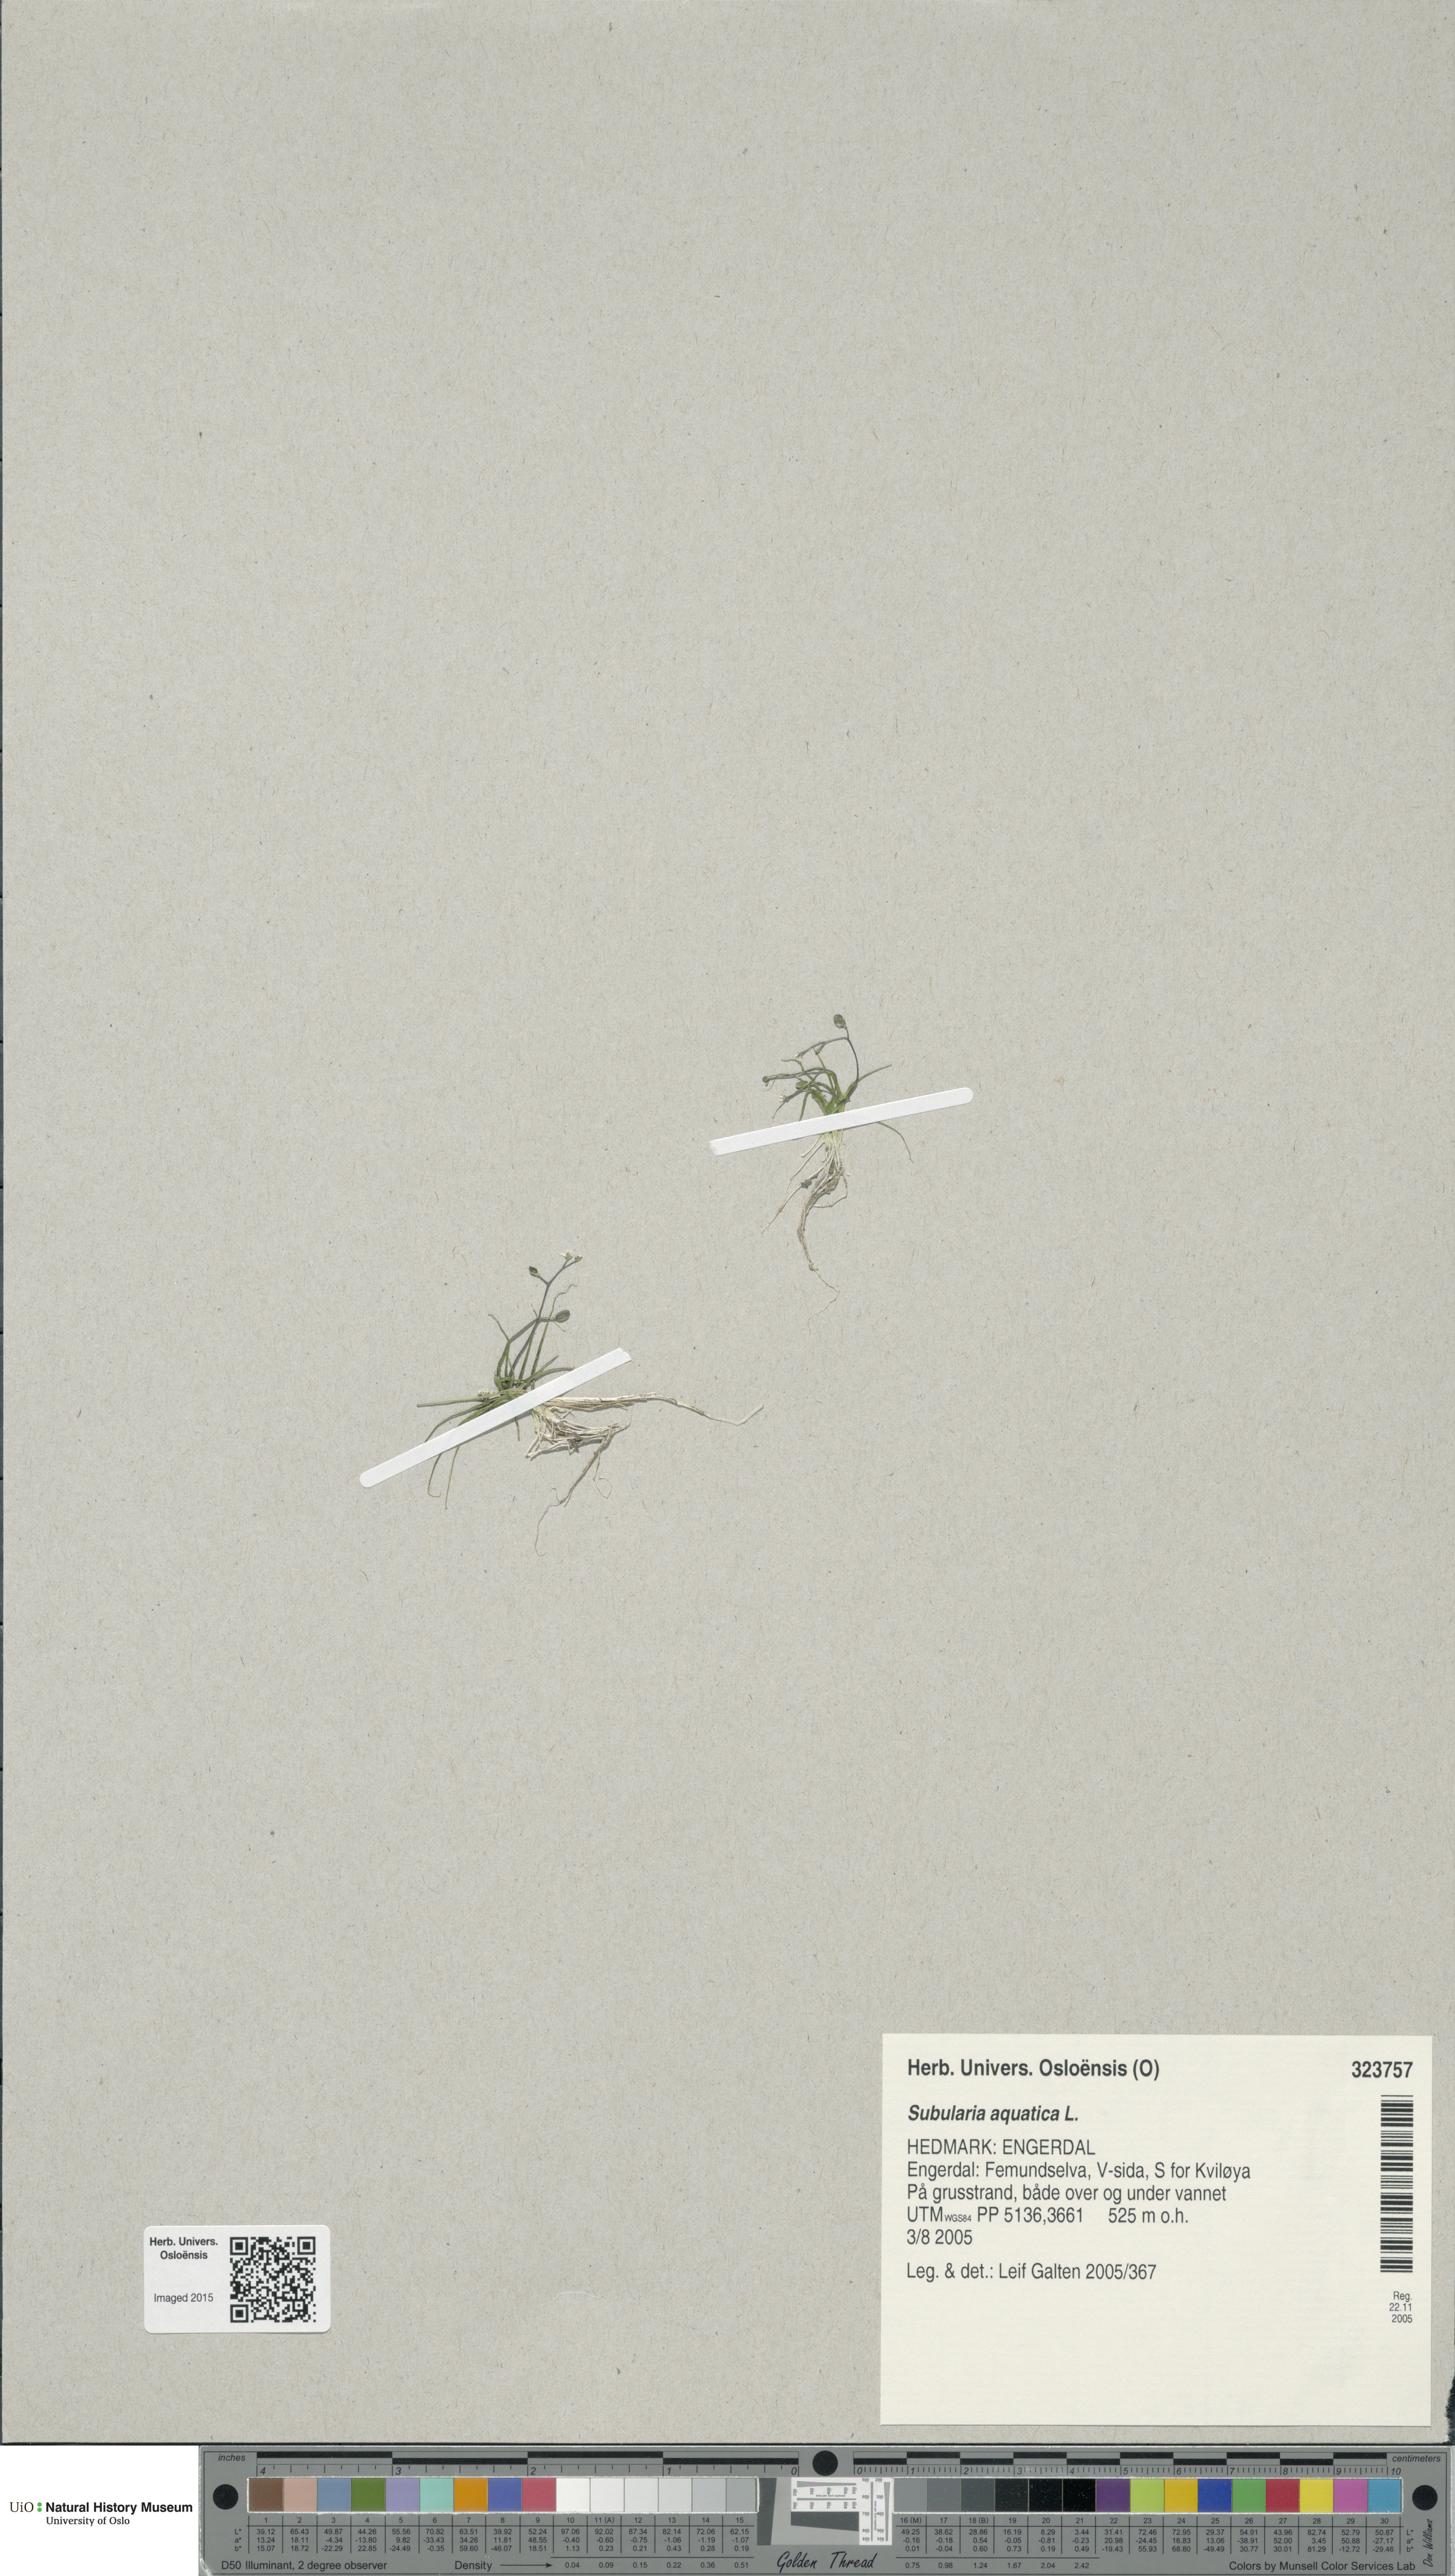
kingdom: Plantae
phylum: Tracheophyta
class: Magnoliopsida
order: Brassicales
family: Brassicaceae
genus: Subularia
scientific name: Subularia aquatica
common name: Awlwort
